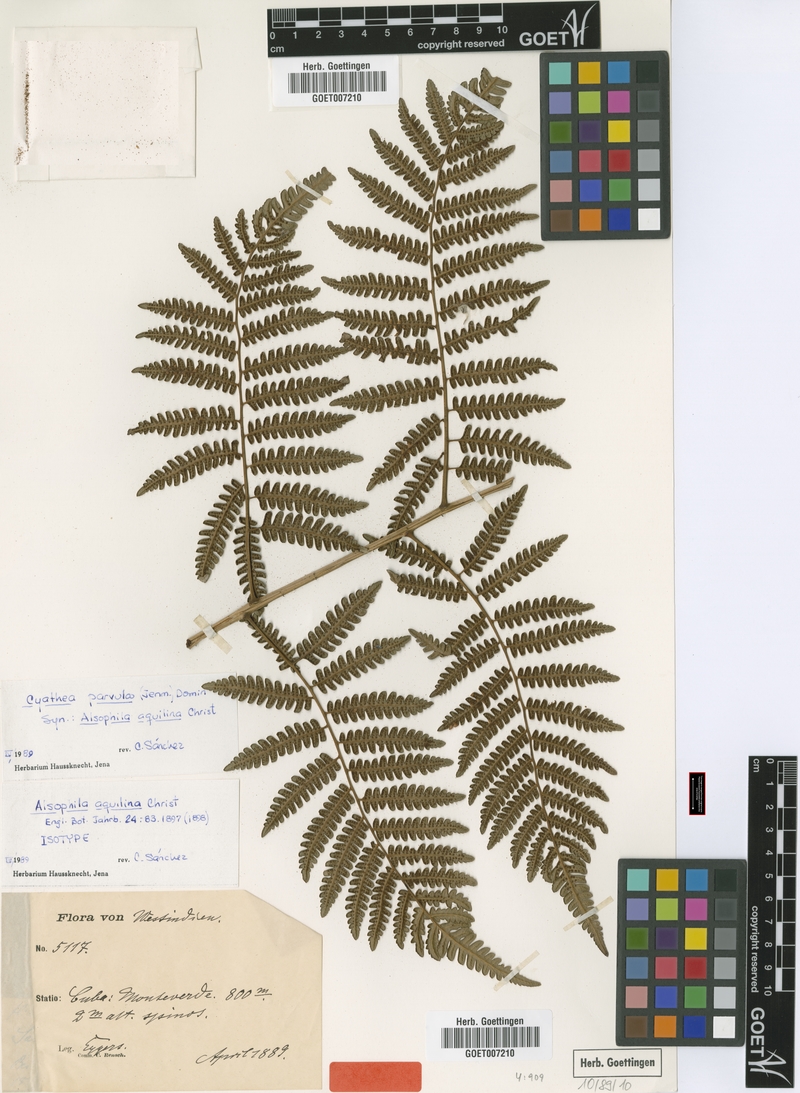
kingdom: Plantae
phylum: Tracheophyta
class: Polypodiopsida
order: Cyatheales
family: Cyatheaceae
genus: Cyathea
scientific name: Cyathea parvula
